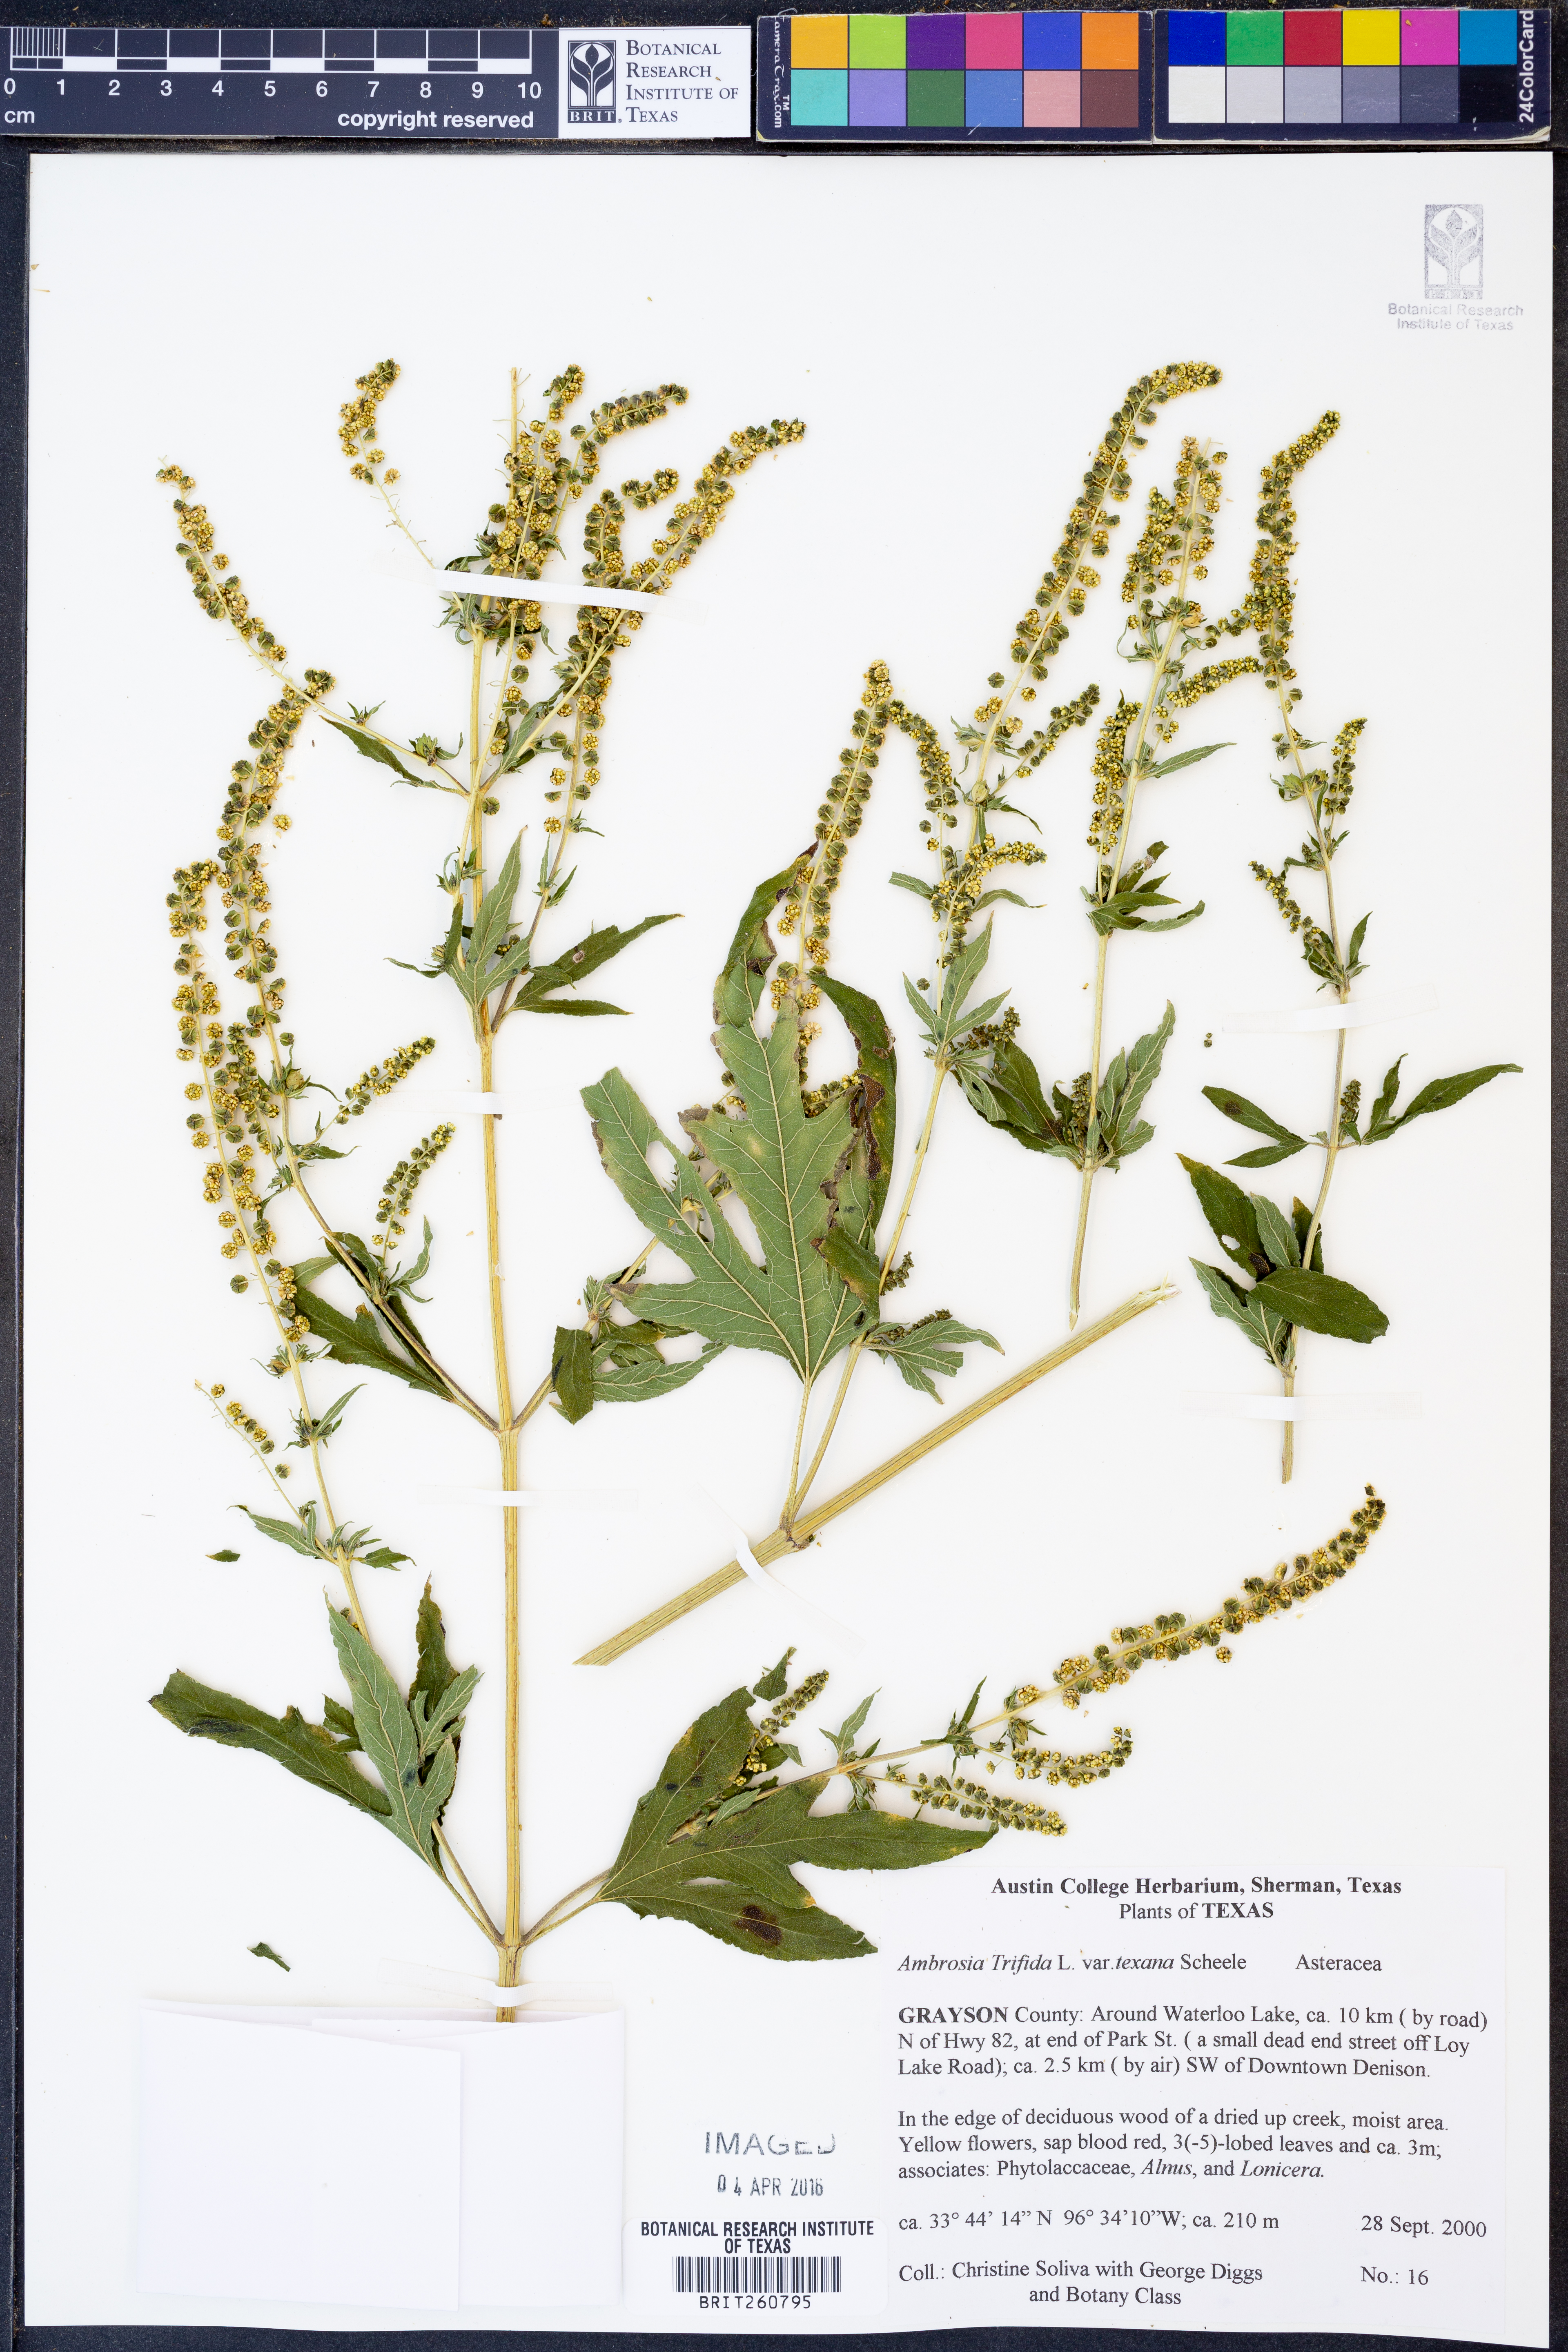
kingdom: Plantae
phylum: Tracheophyta
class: Magnoliopsida
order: Asterales
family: Asteraceae
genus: Ambrosia
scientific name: Ambrosia trifida
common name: Giant ragweed
